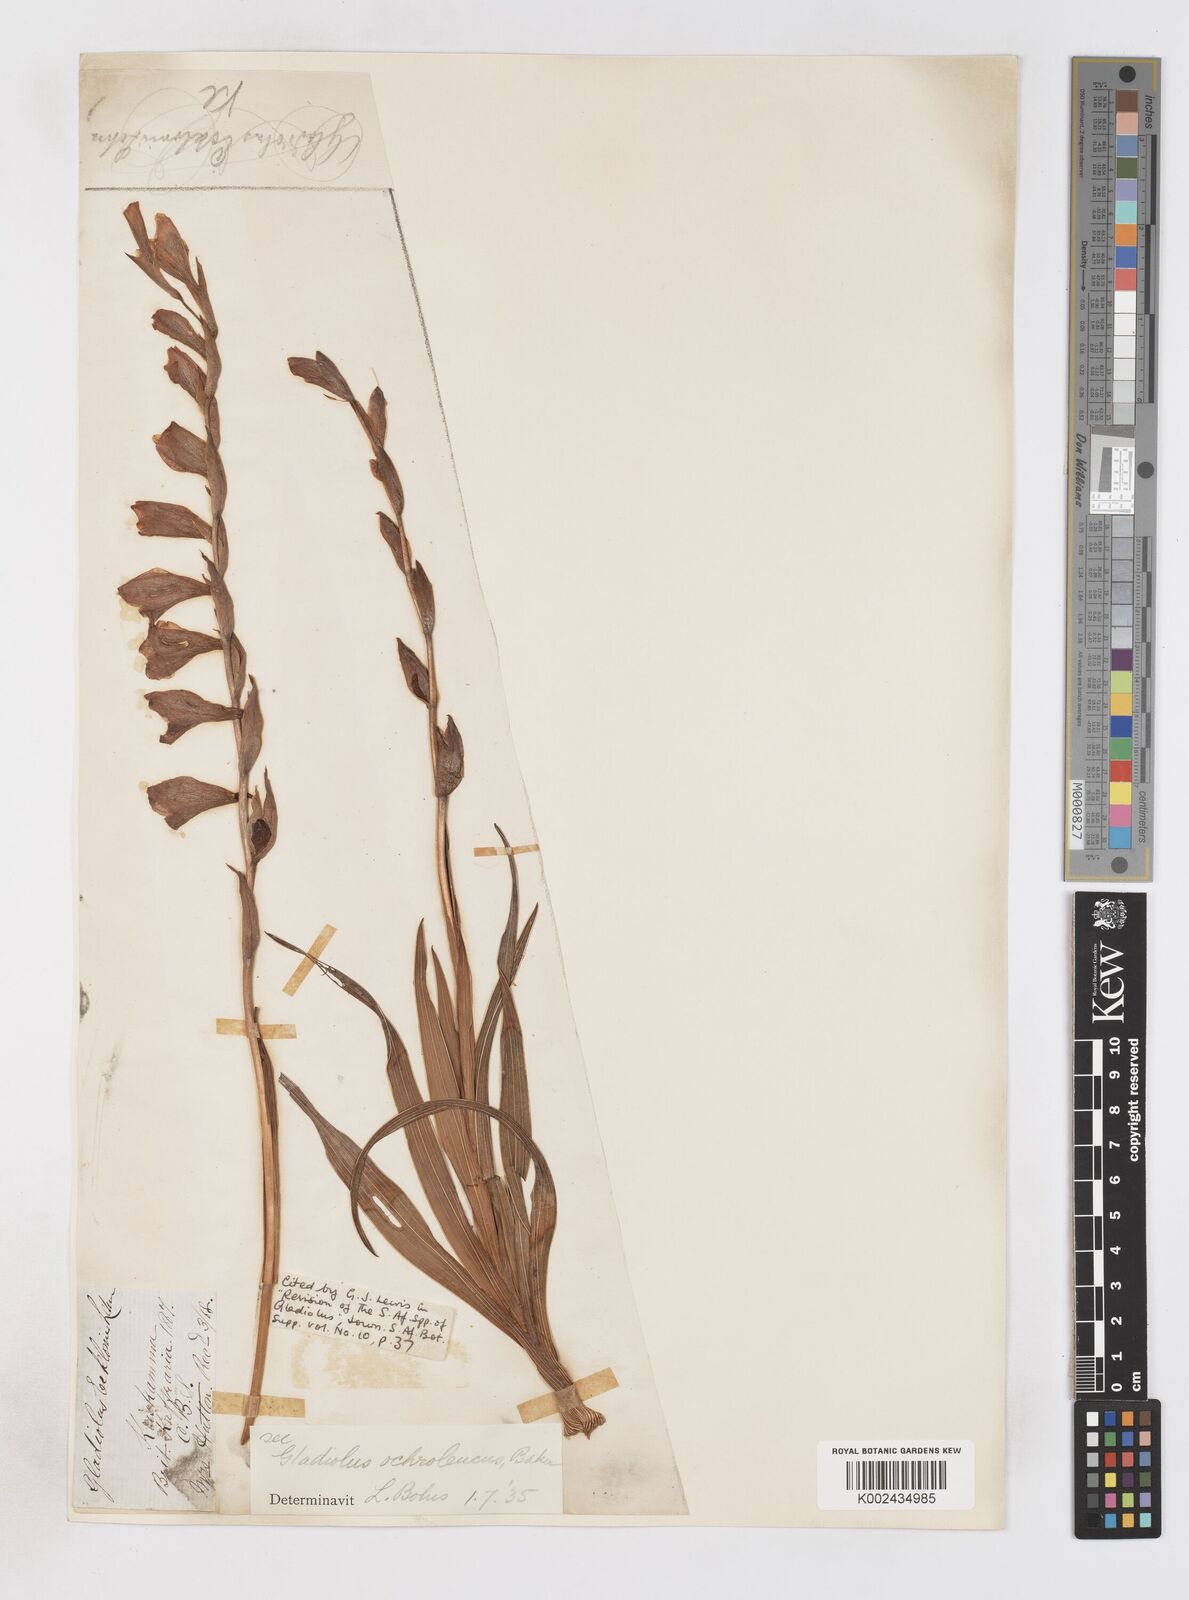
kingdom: Plantae
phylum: Tracheophyta
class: Liliopsida
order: Asparagales
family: Iridaceae
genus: Gladiolus
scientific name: Gladiolus ochroleucus
